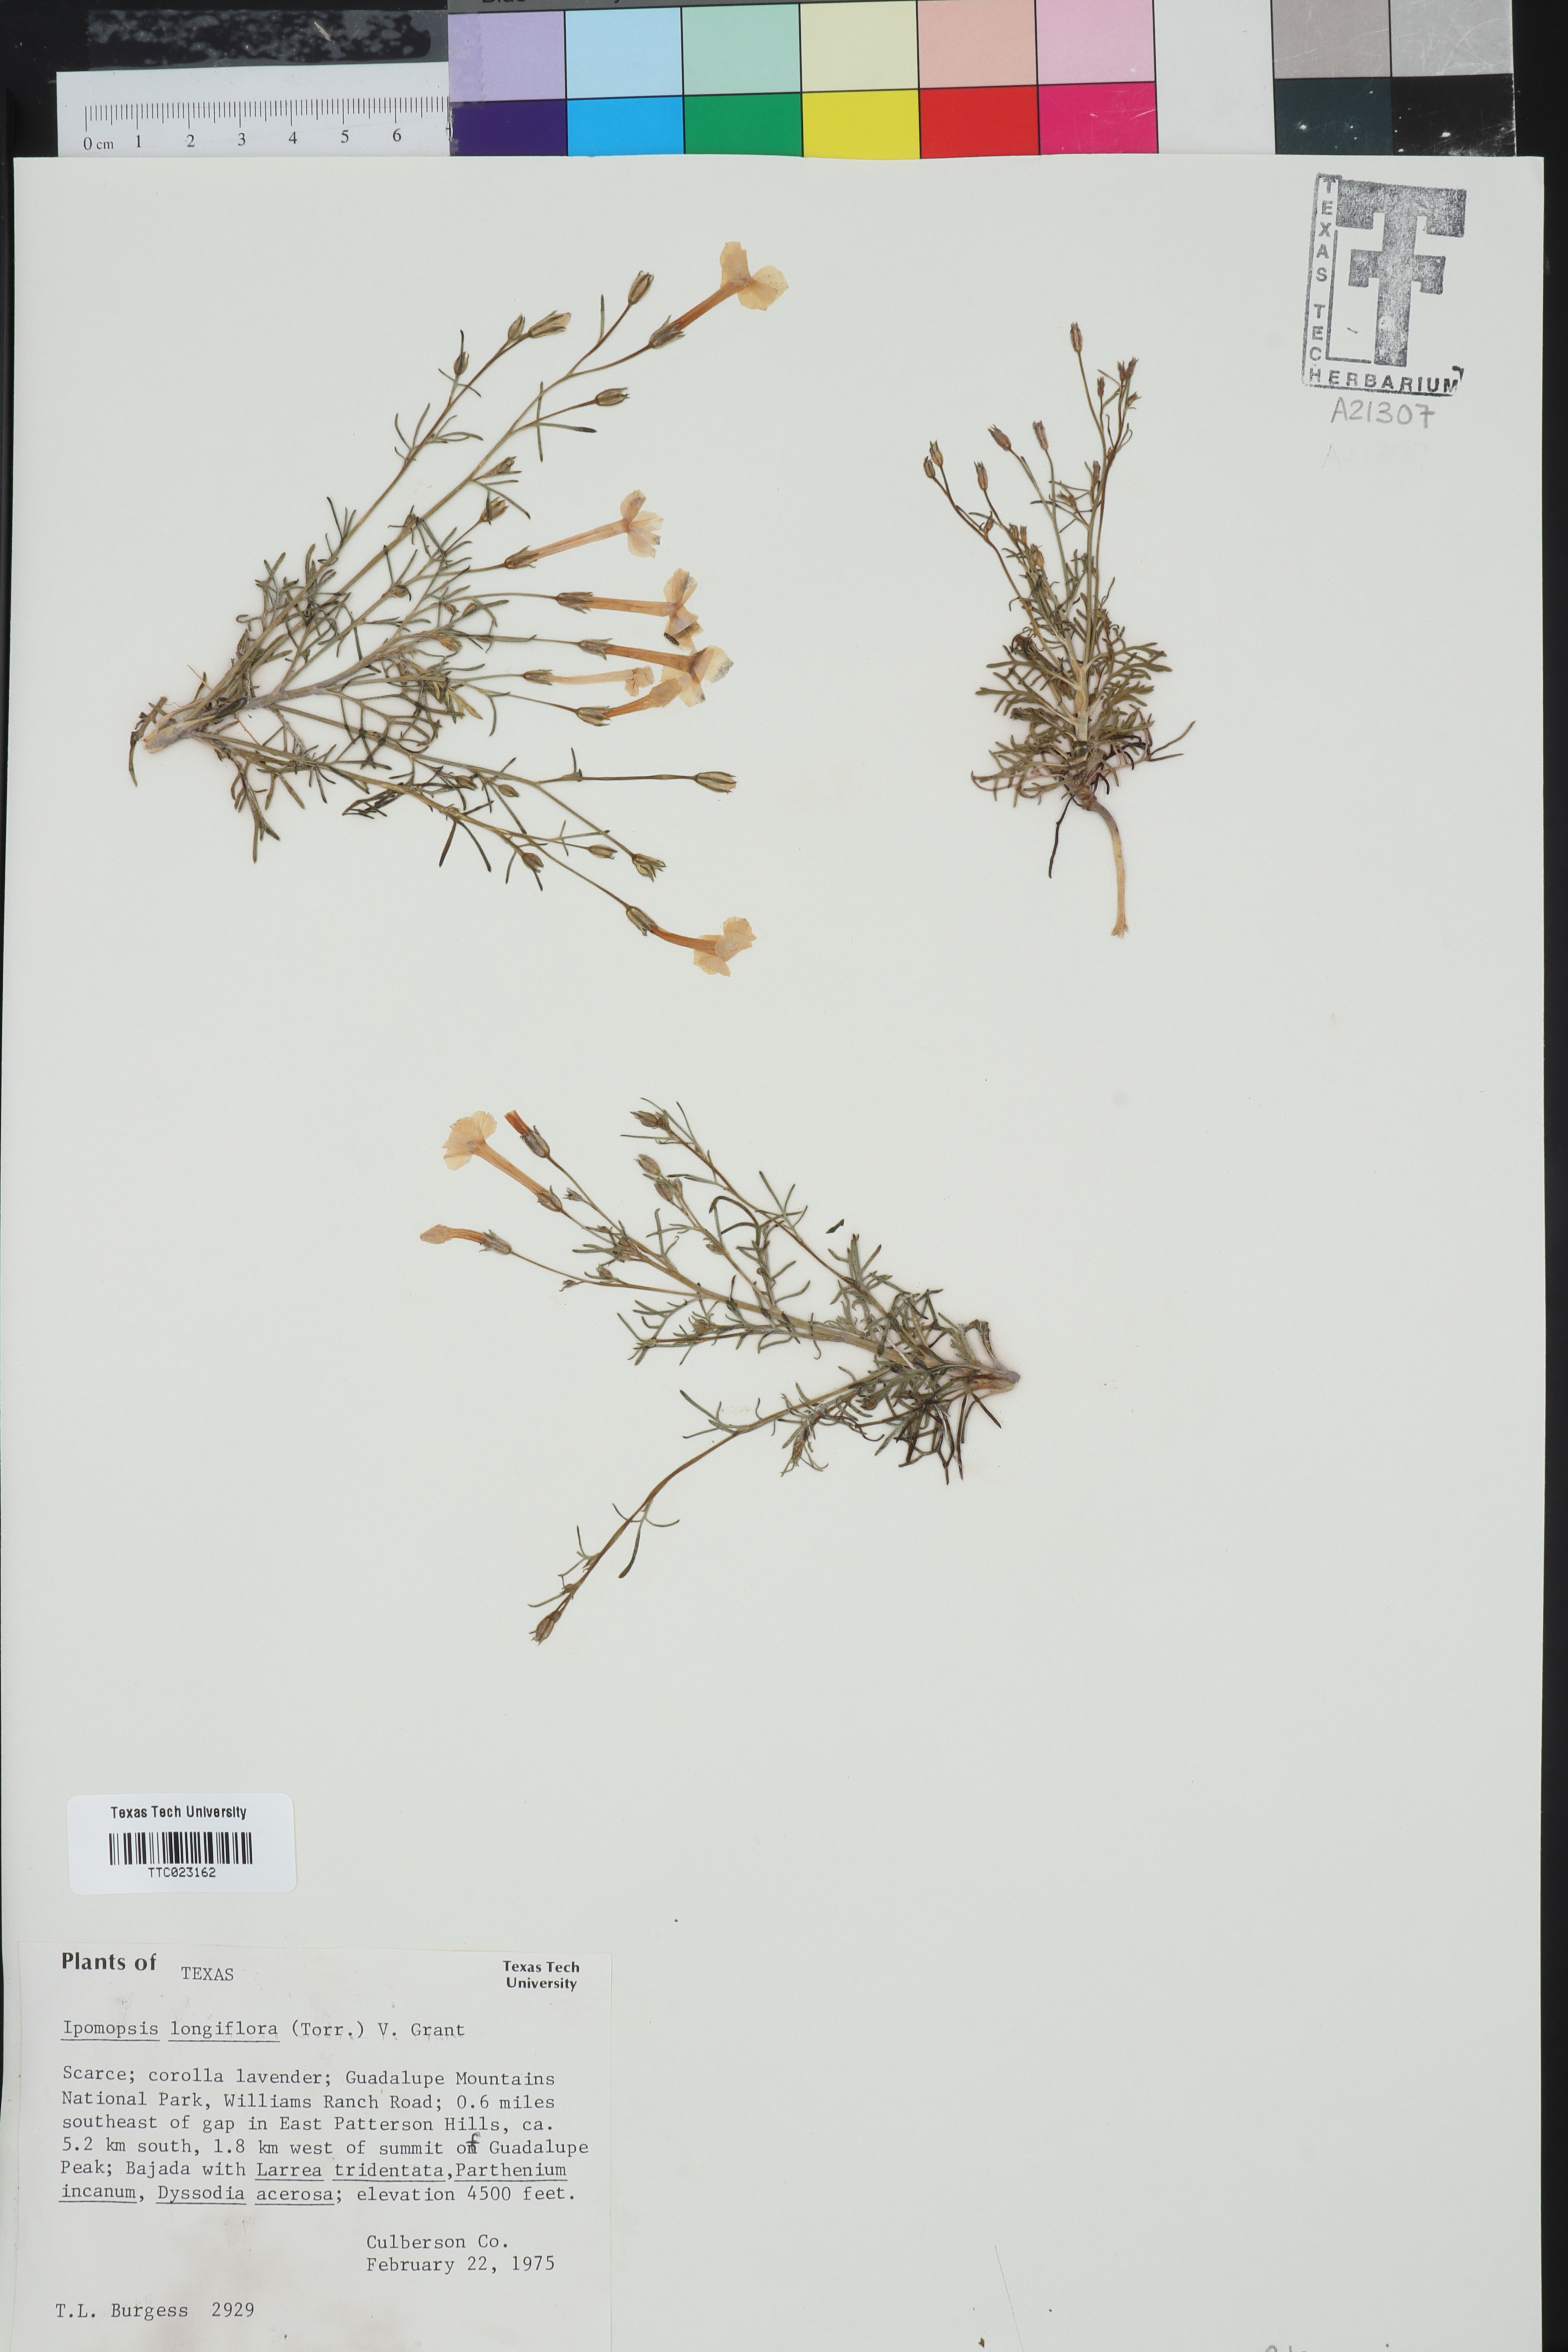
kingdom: Plantae
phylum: Tracheophyta
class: Magnoliopsida
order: Ericales
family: Polemoniaceae
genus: Ipomopsis
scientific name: Ipomopsis longiflora
